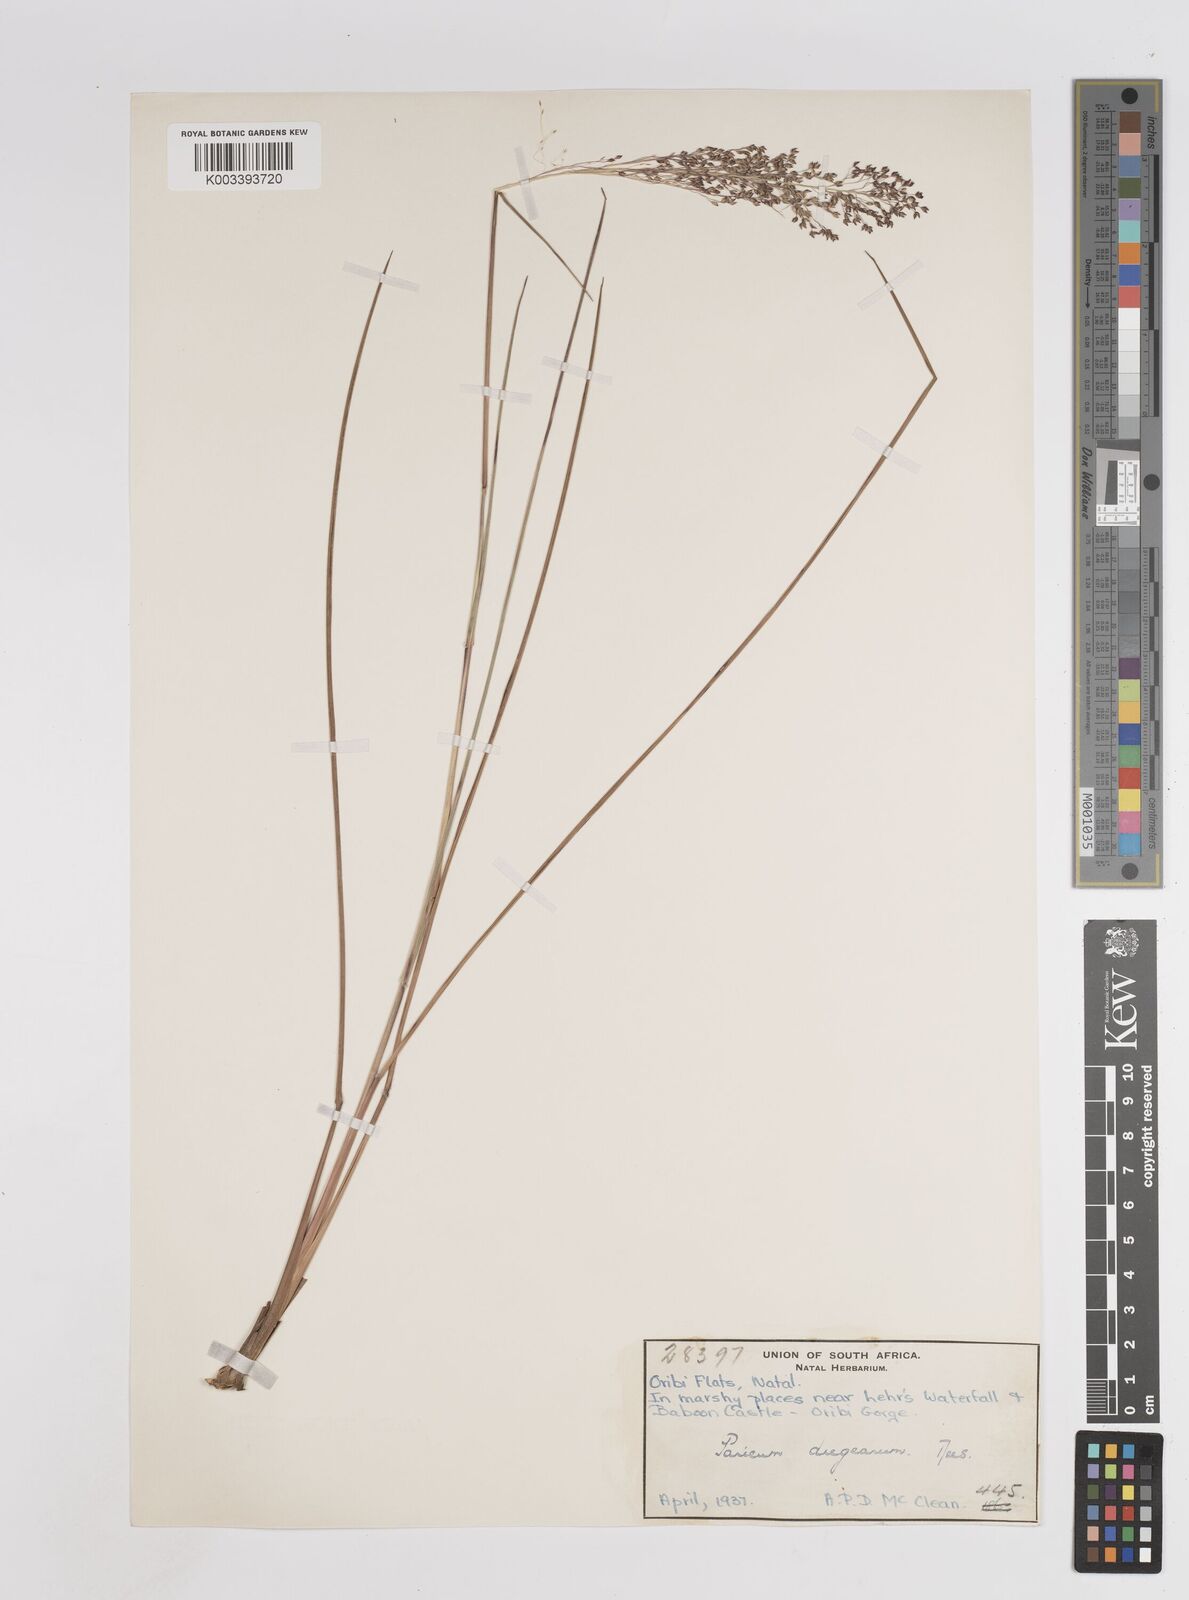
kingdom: Plantae
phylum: Tracheophyta
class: Liliopsida
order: Poales
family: Poaceae
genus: Panicum
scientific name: Panicum dregeanum
